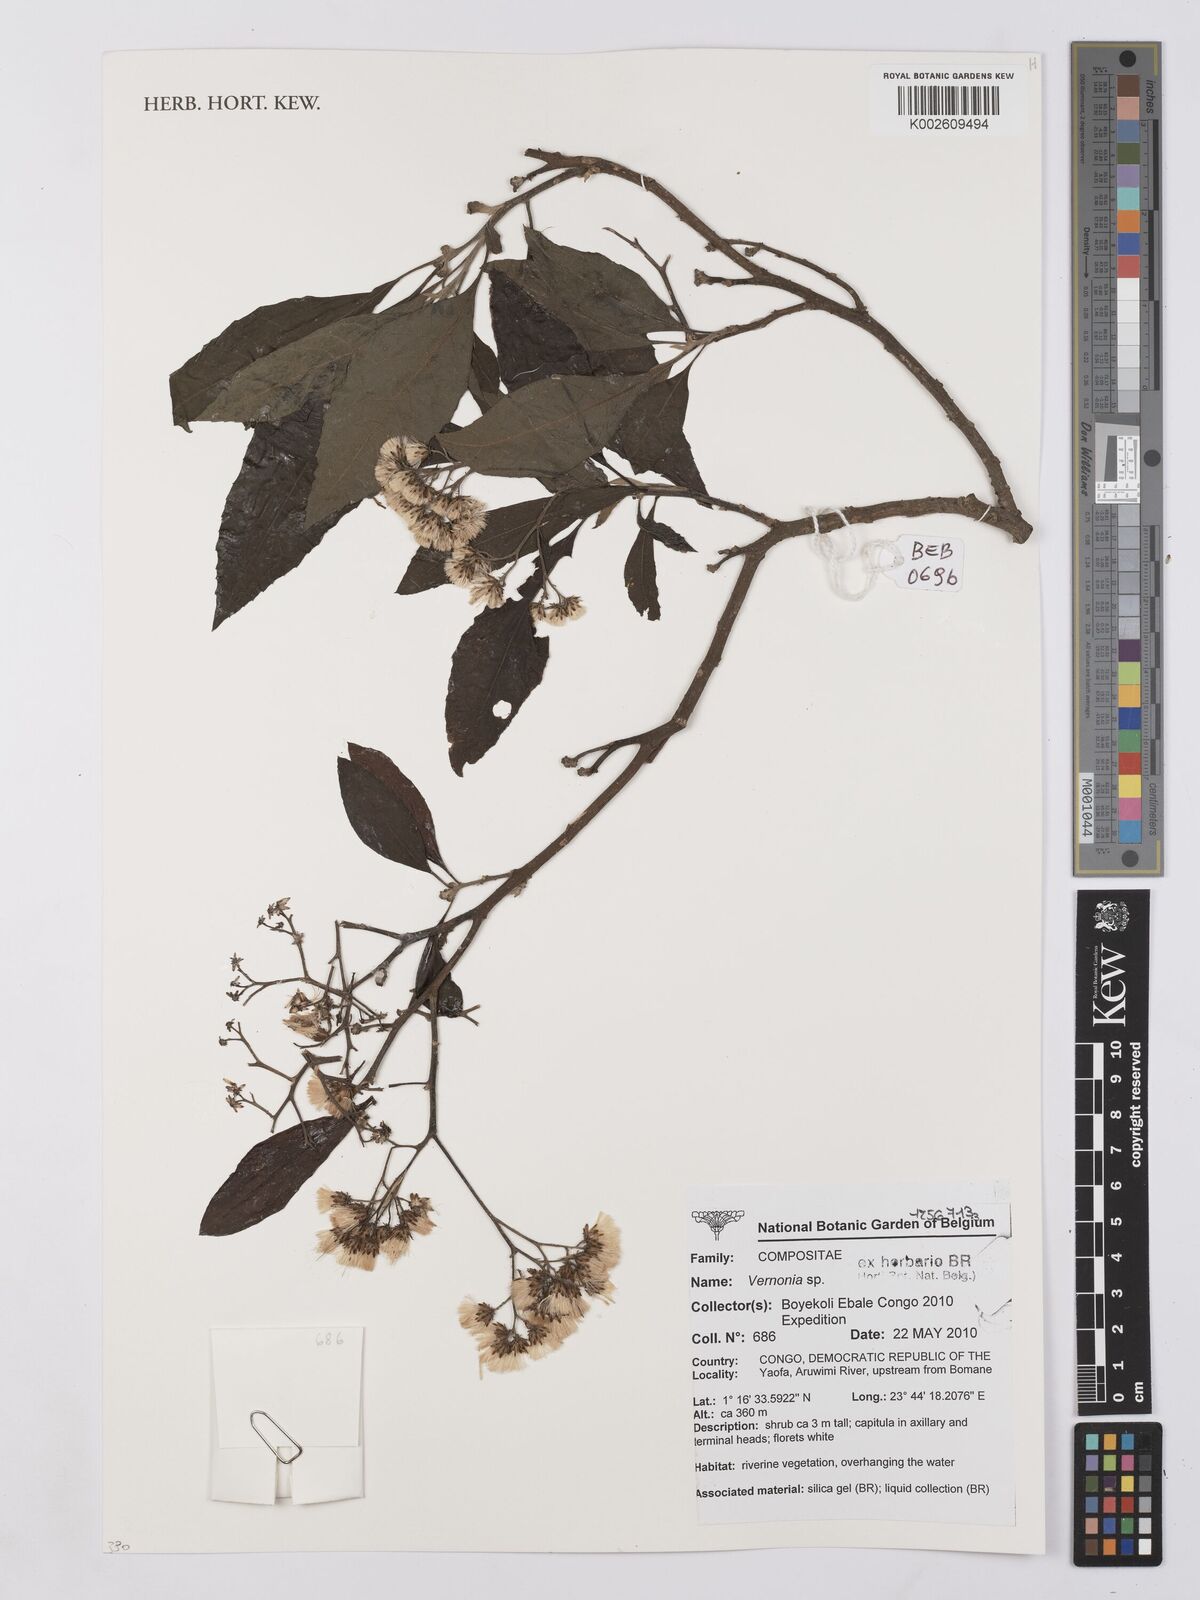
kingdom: Plantae
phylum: Tracheophyta
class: Magnoliopsida
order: Asterales
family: Asteraceae
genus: Vernonia
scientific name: Vernonia
